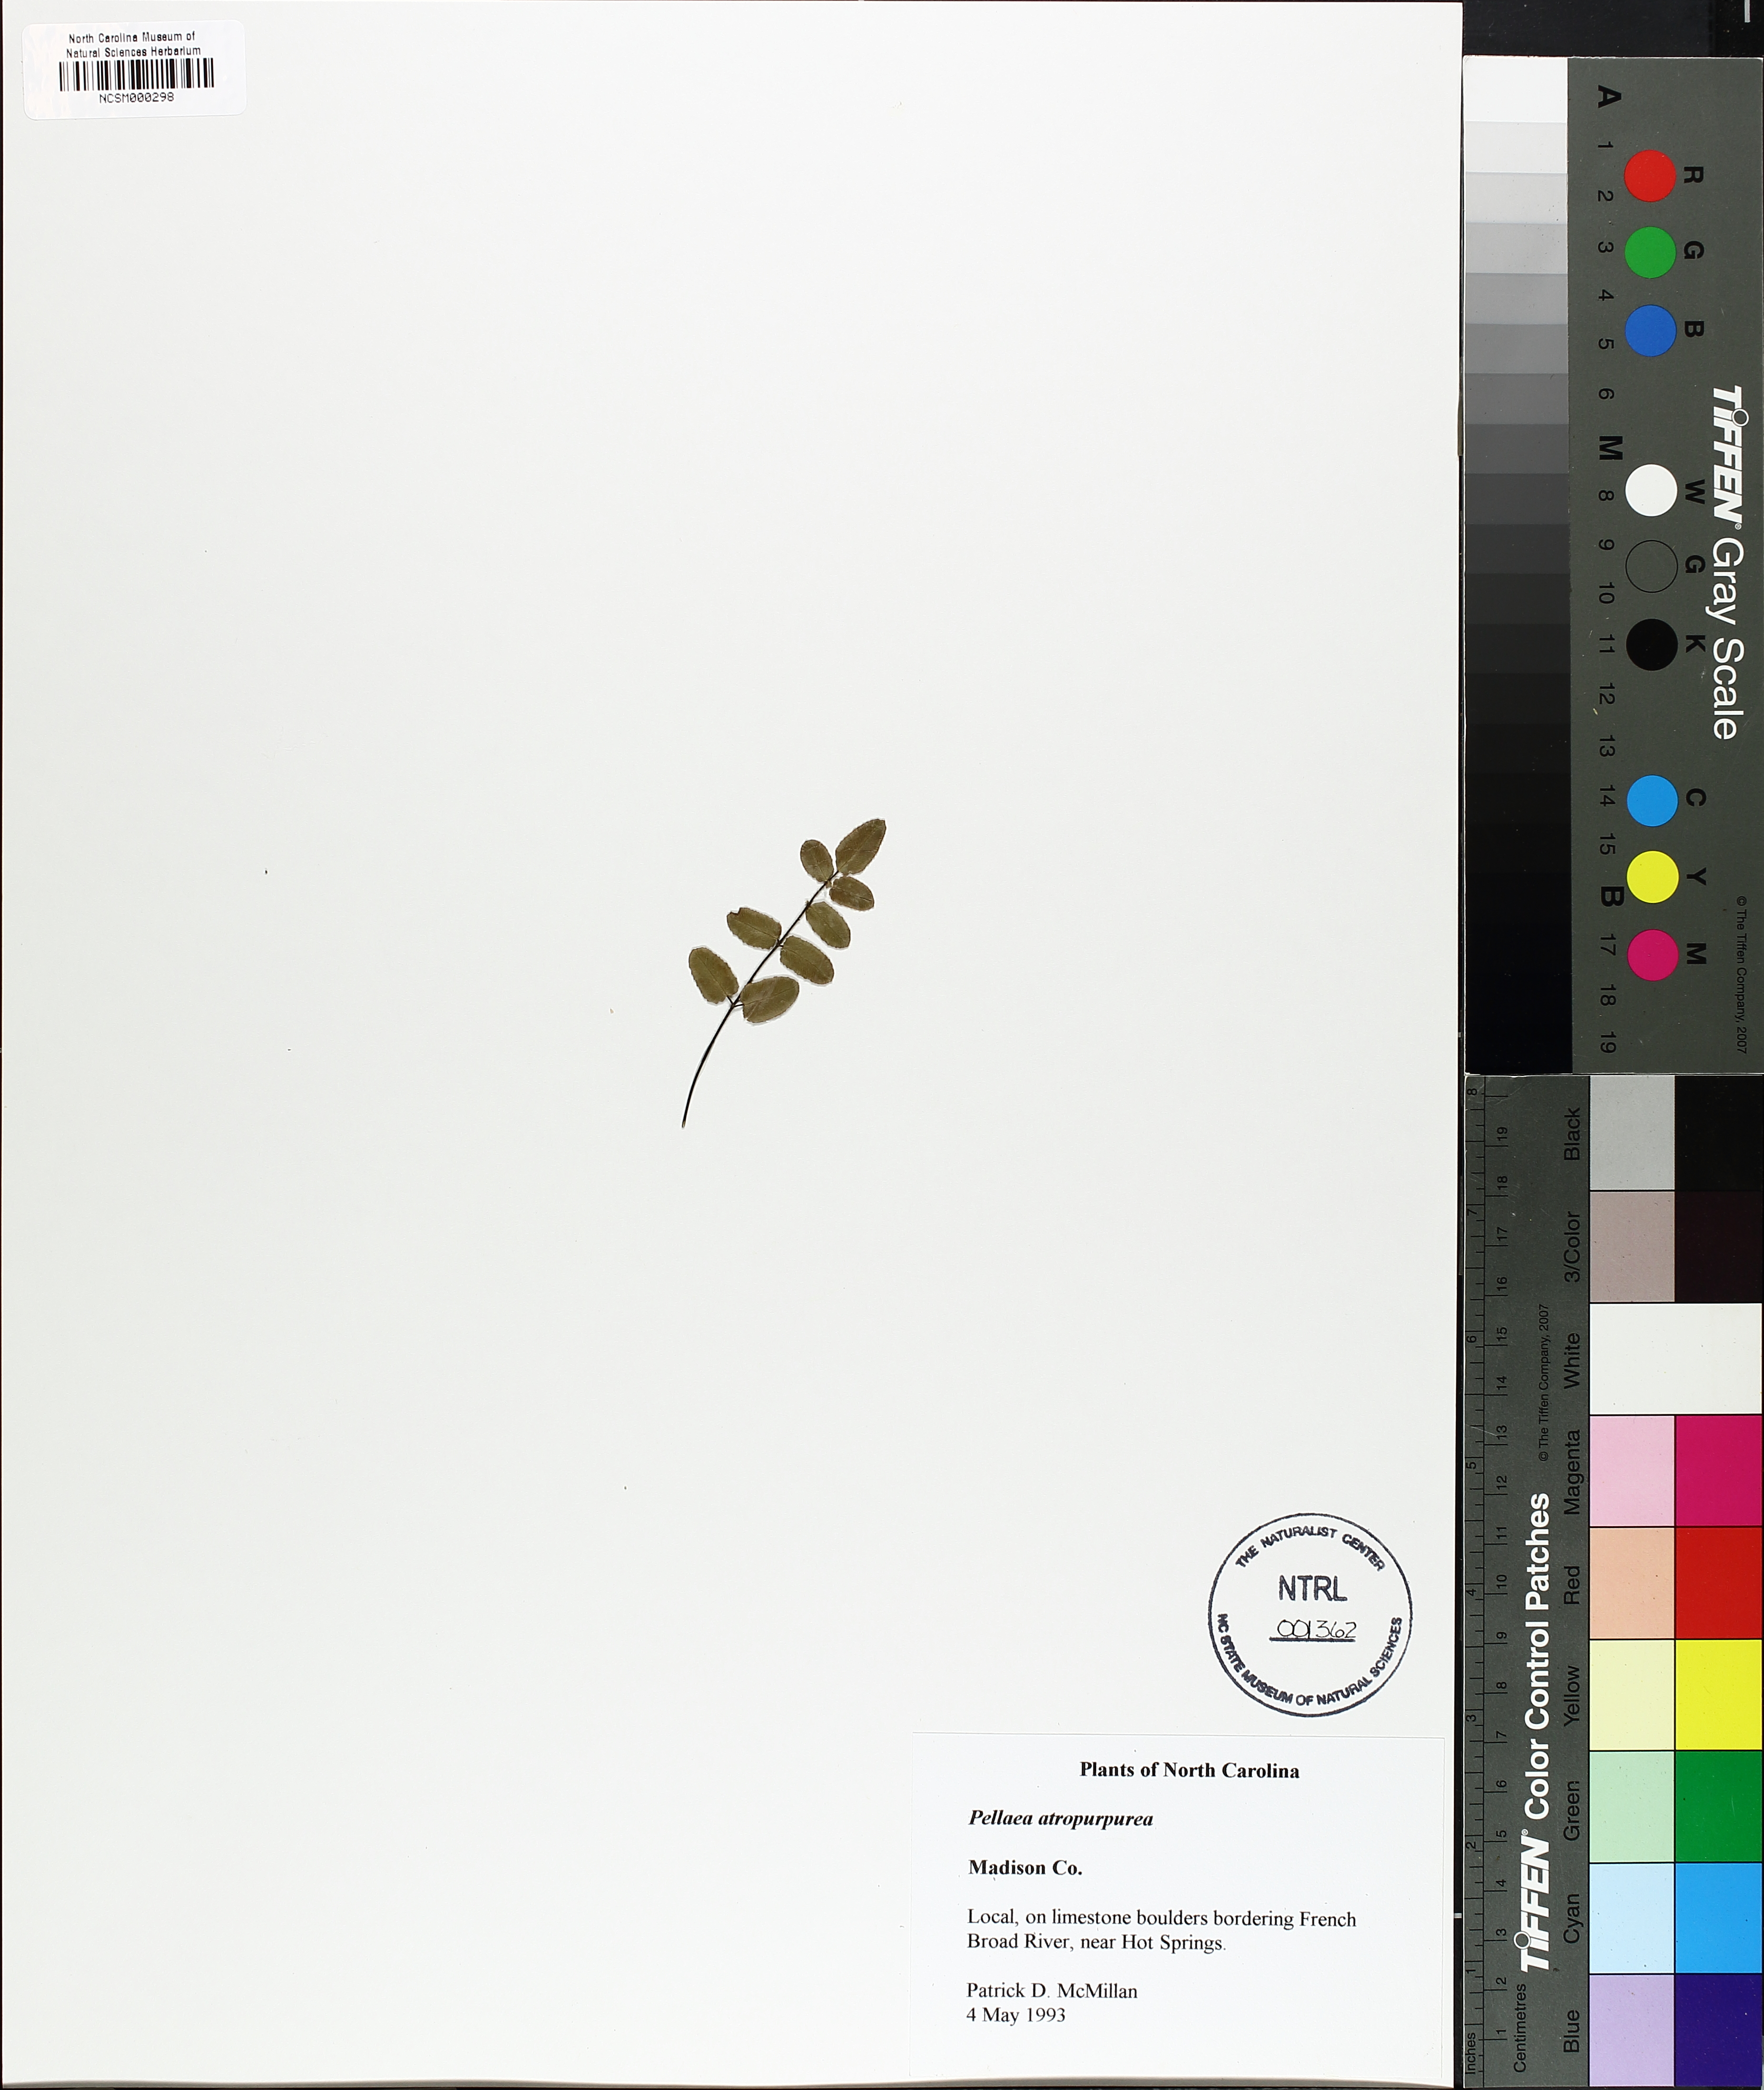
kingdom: Plantae
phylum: Tracheophyta
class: Polypodiopsida
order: Polypodiales
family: Pteridaceae
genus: Pellaea
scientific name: Pellaea atropurpurea
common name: Hairy cliffbrake
